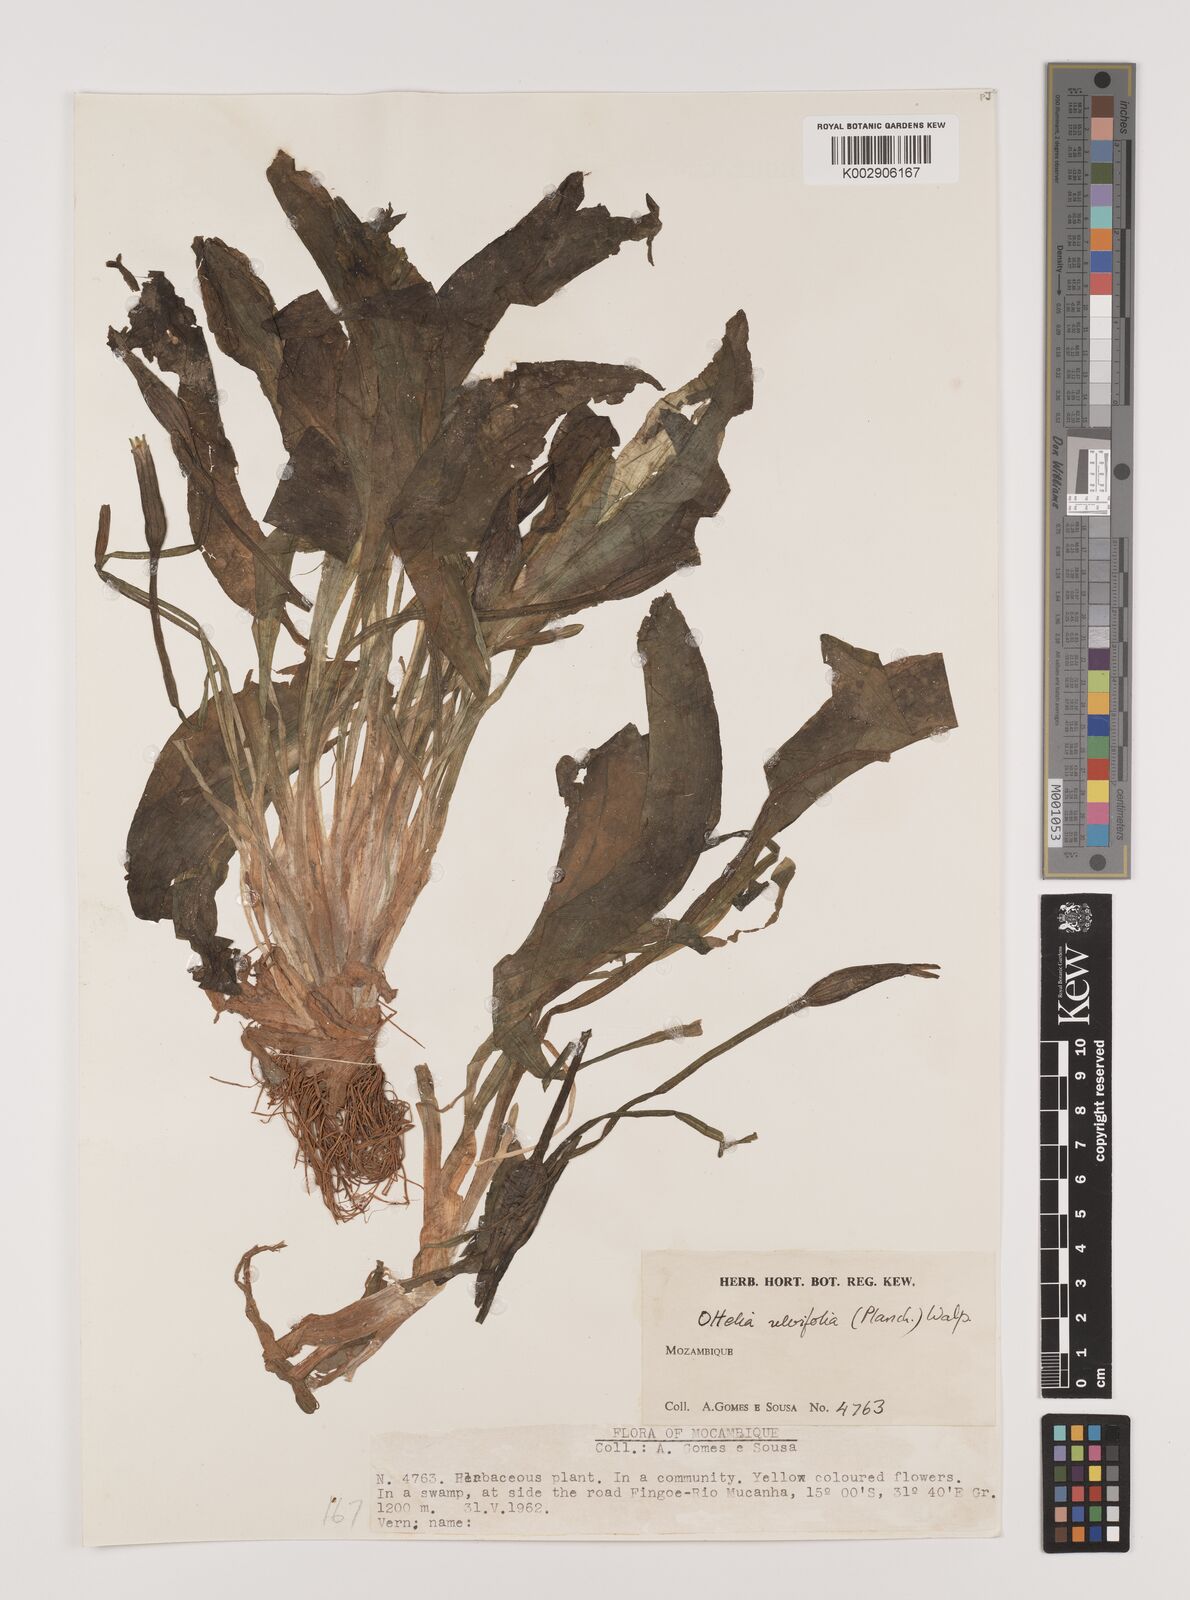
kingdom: Plantae
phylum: Tracheophyta
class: Liliopsida
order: Alismatales
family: Hydrocharitaceae
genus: Ottelia
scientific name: Ottelia ulvifolia
